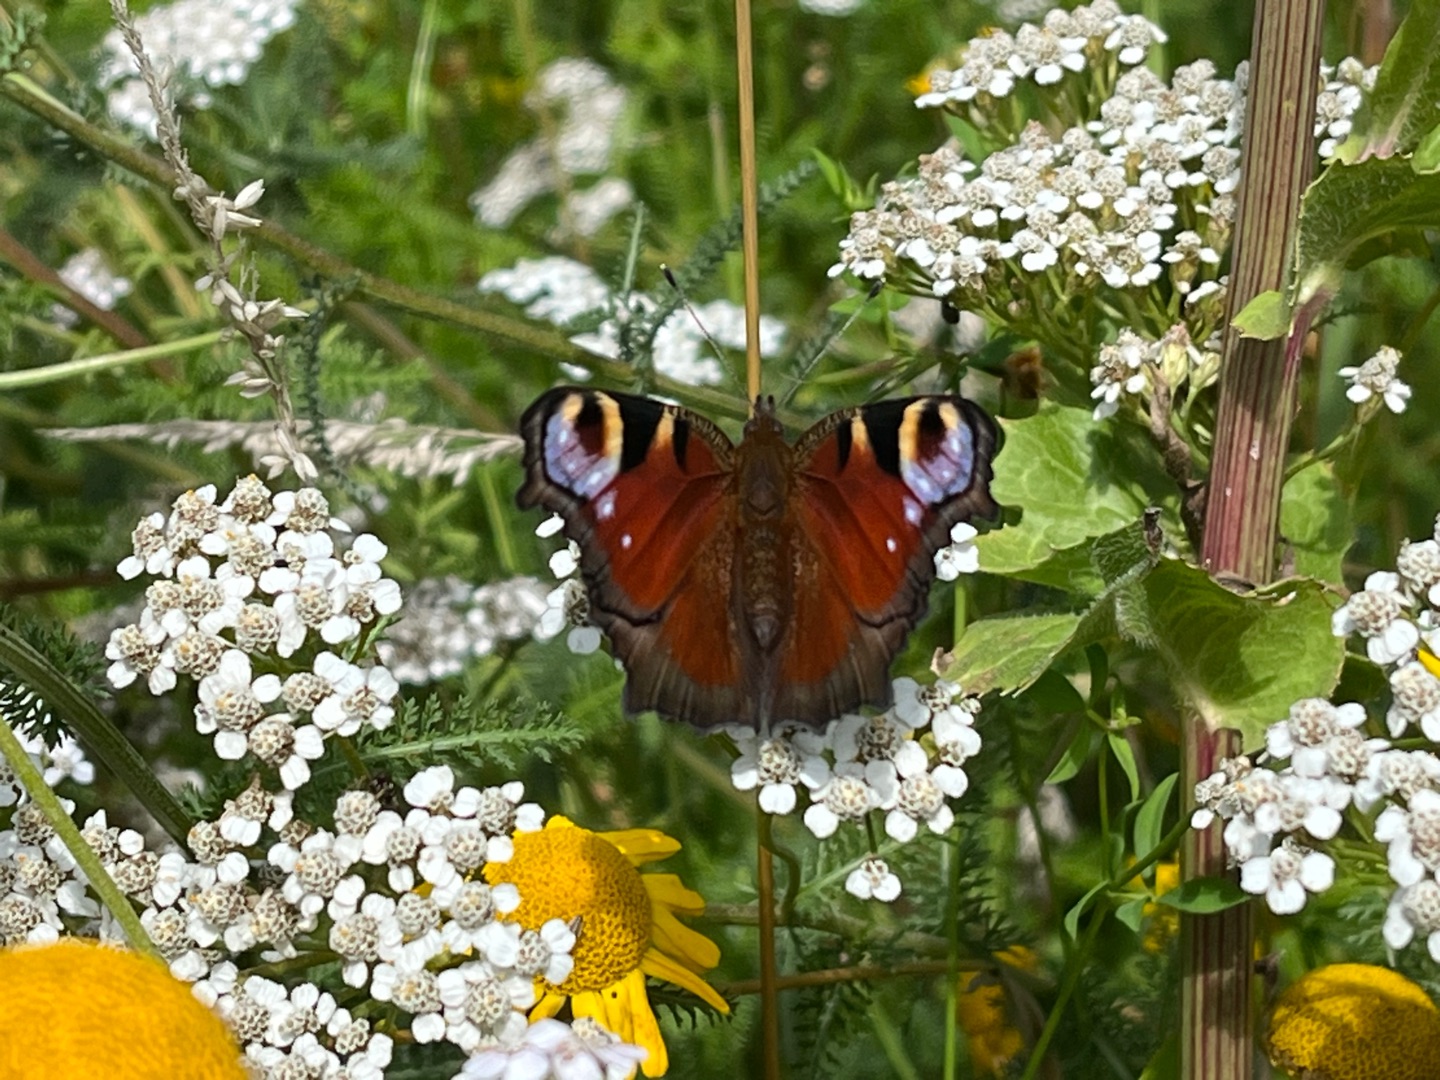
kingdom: Animalia
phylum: Arthropoda
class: Insecta
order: Lepidoptera
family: Nymphalidae
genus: Aglais
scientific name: Aglais io
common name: Dagpåfugleøje
